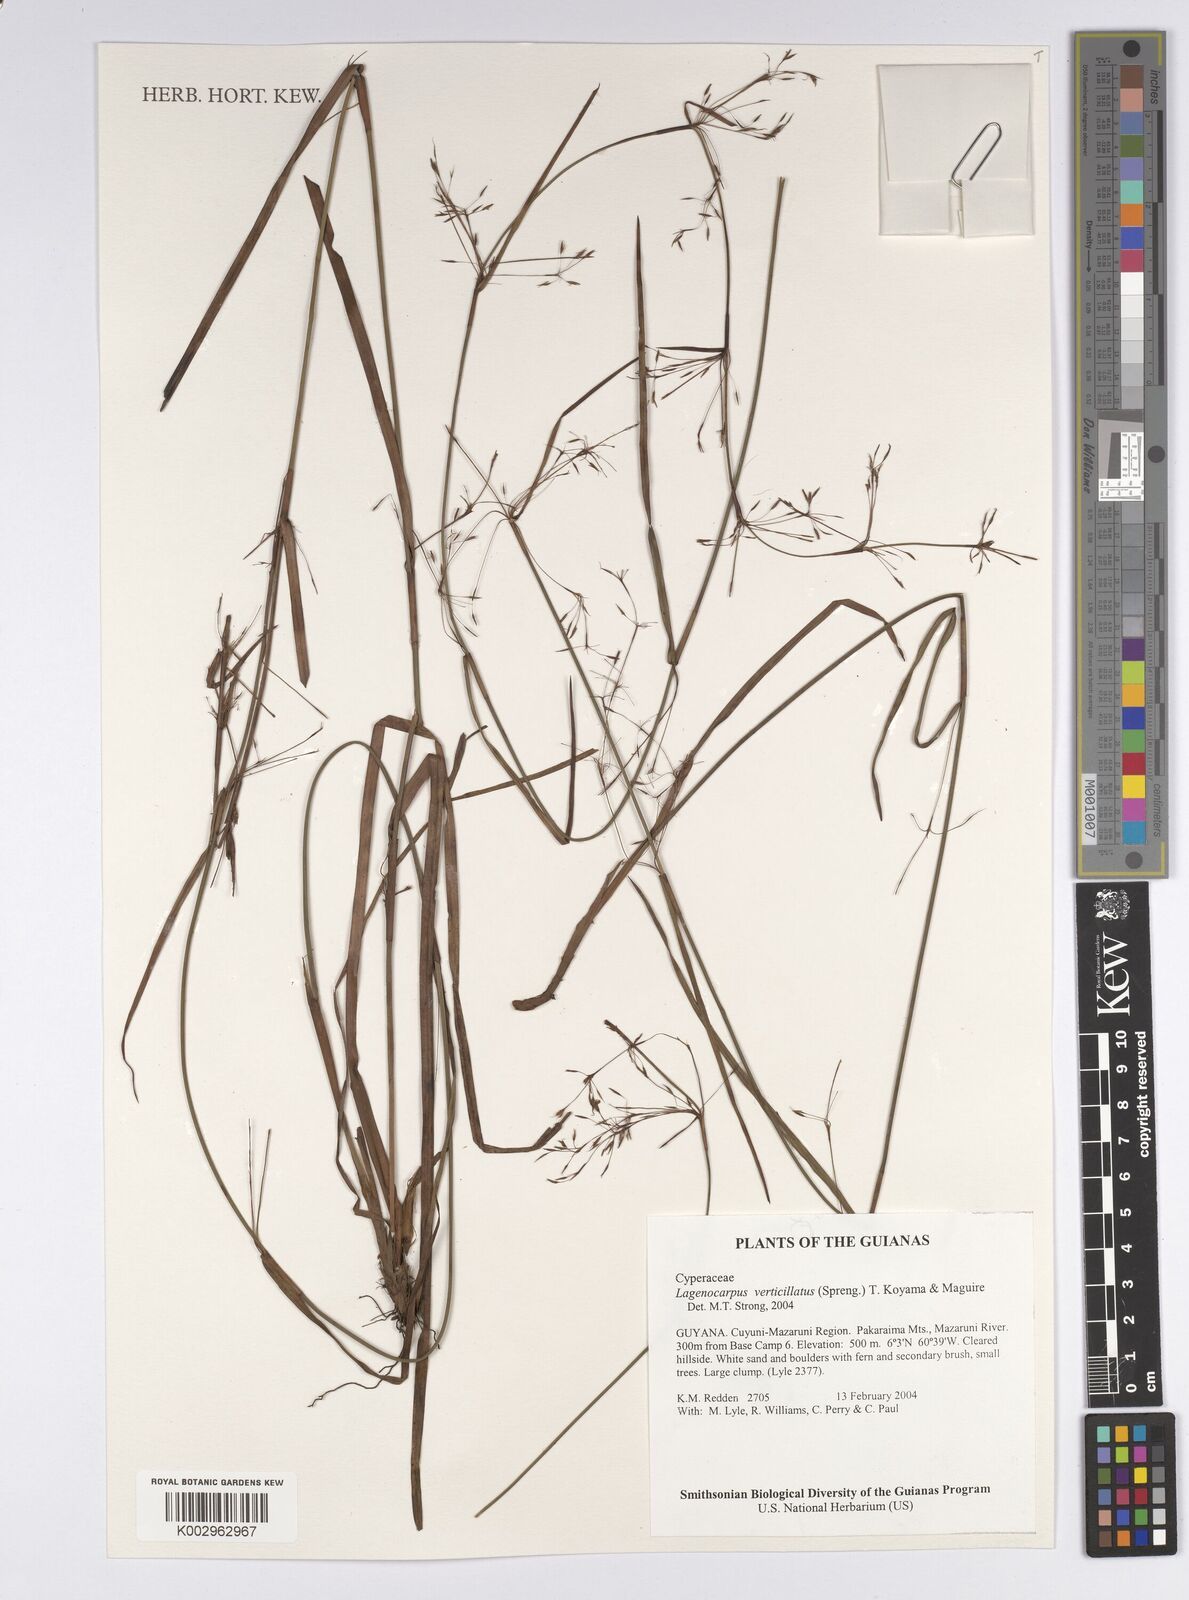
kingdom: Plantae
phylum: Tracheophyta
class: Liliopsida
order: Poales
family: Cyperaceae
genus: Cryptangium
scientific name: Cryptangium verticillatum
